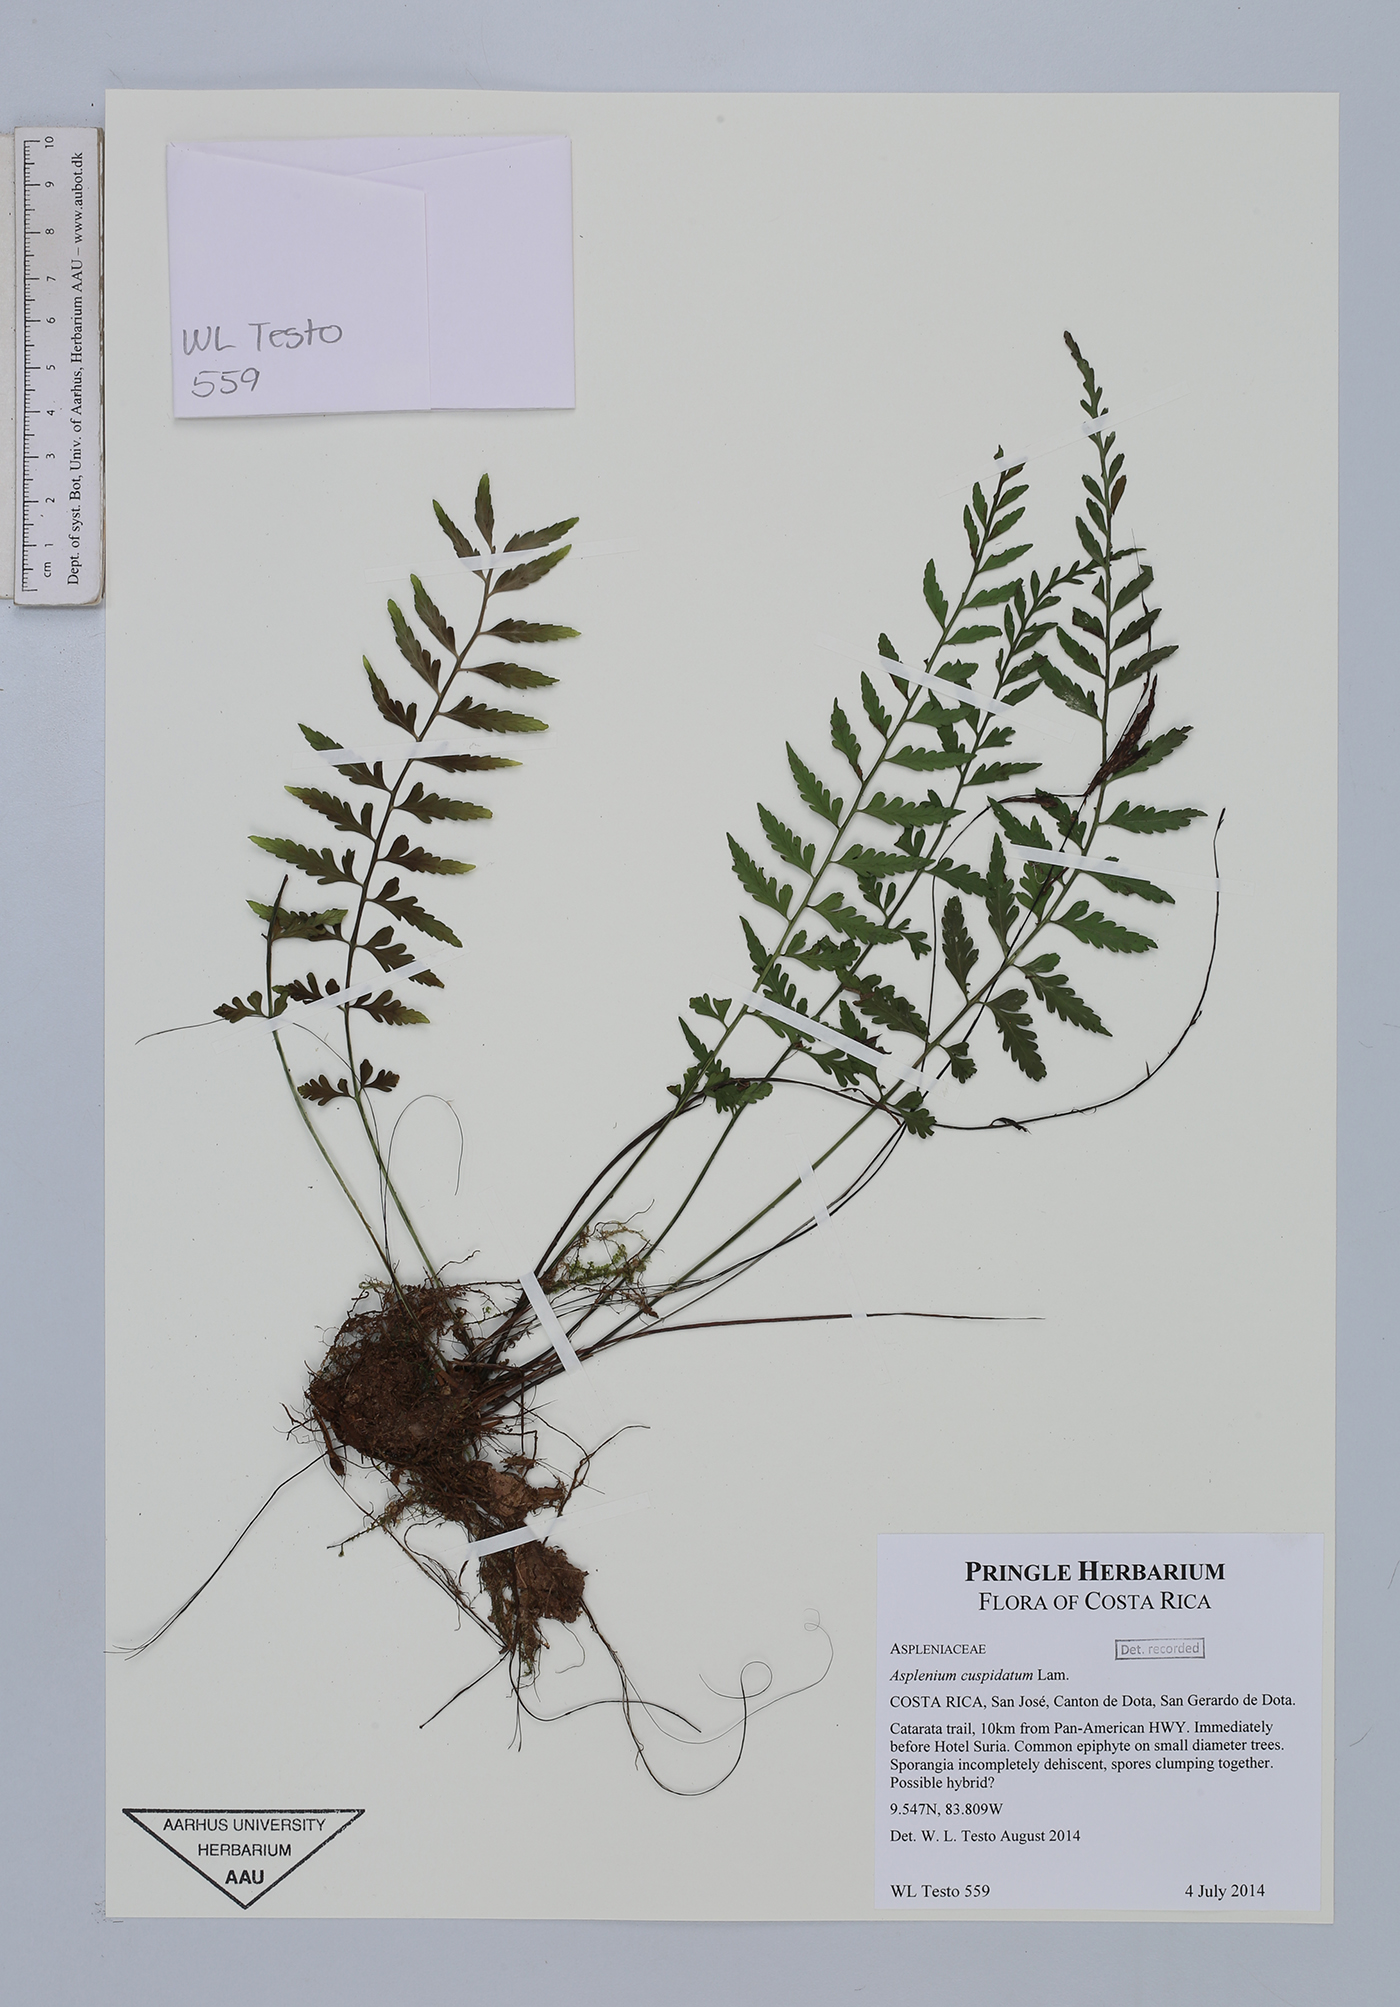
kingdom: Plantae
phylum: Tracheophyta
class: Polypodiopsida
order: Polypodiales
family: Aspleniaceae
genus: Asplenium
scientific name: Asplenium cuspidatum
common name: Eared spleenwort
